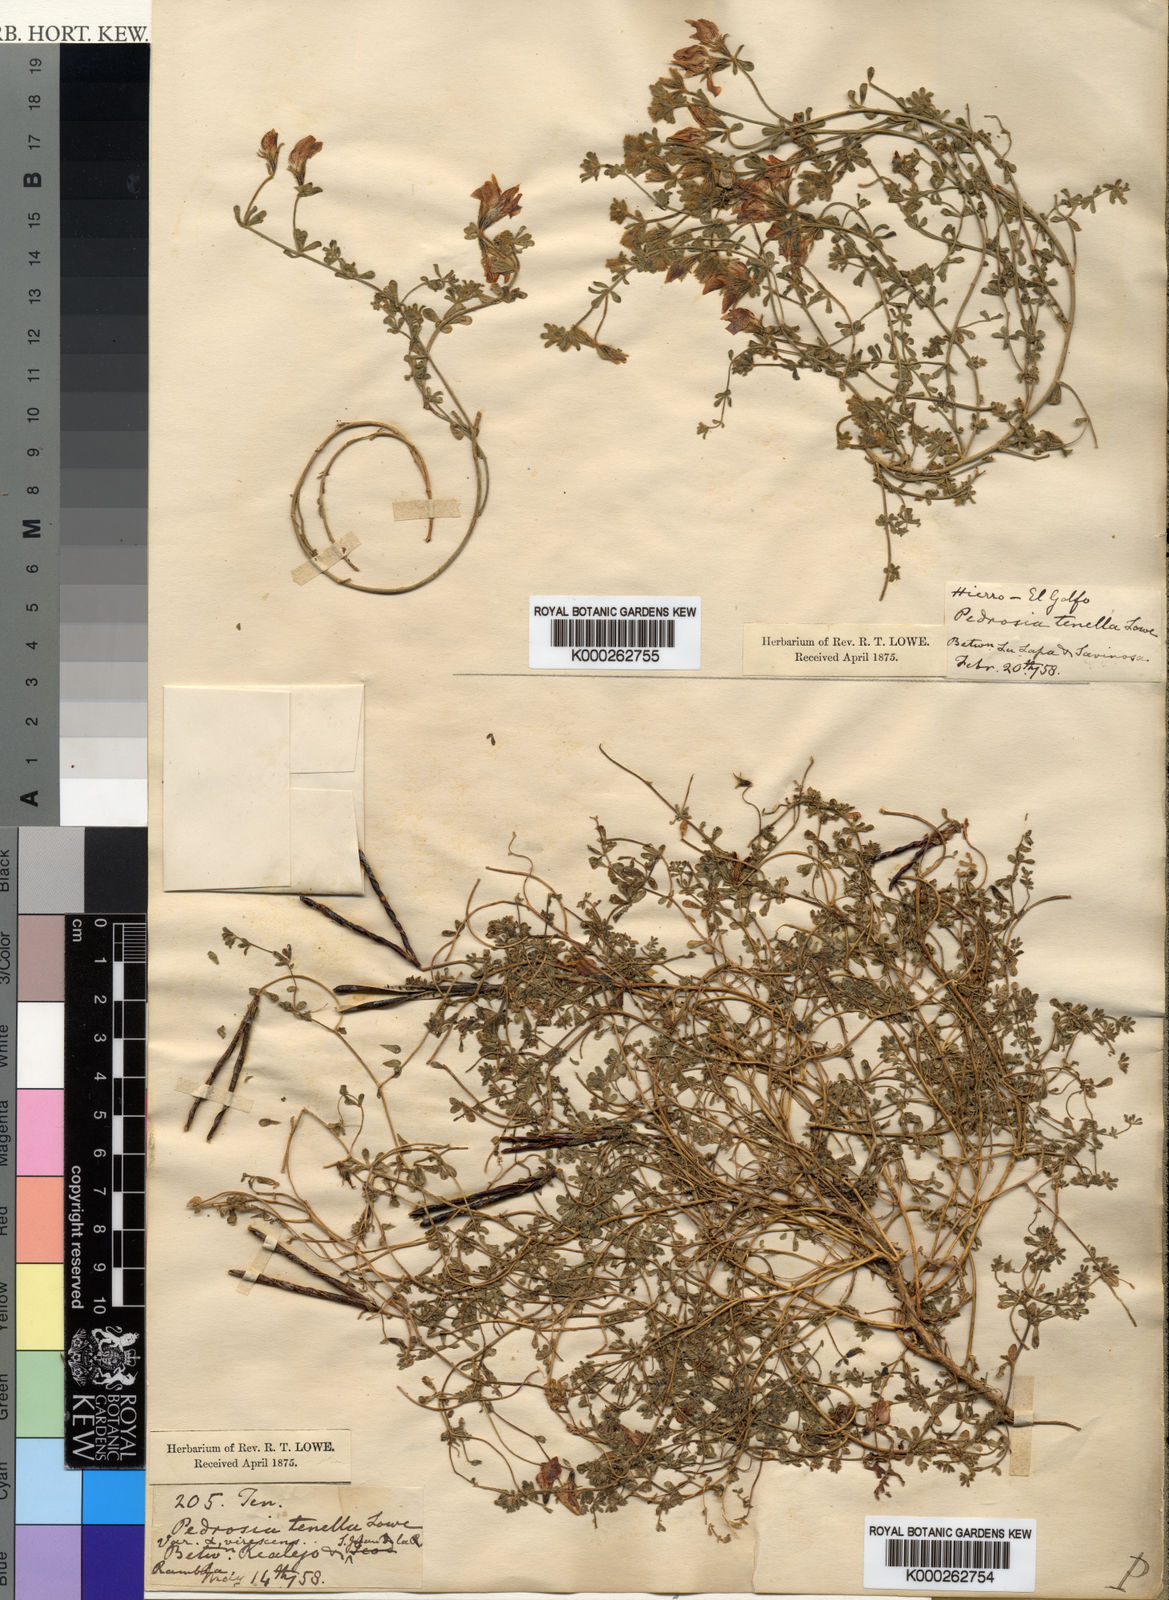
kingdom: Plantae
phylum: Tracheophyta
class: Magnoliopsida
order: Fabales
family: Fabaceae
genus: Lotus
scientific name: Lotus glaucus
